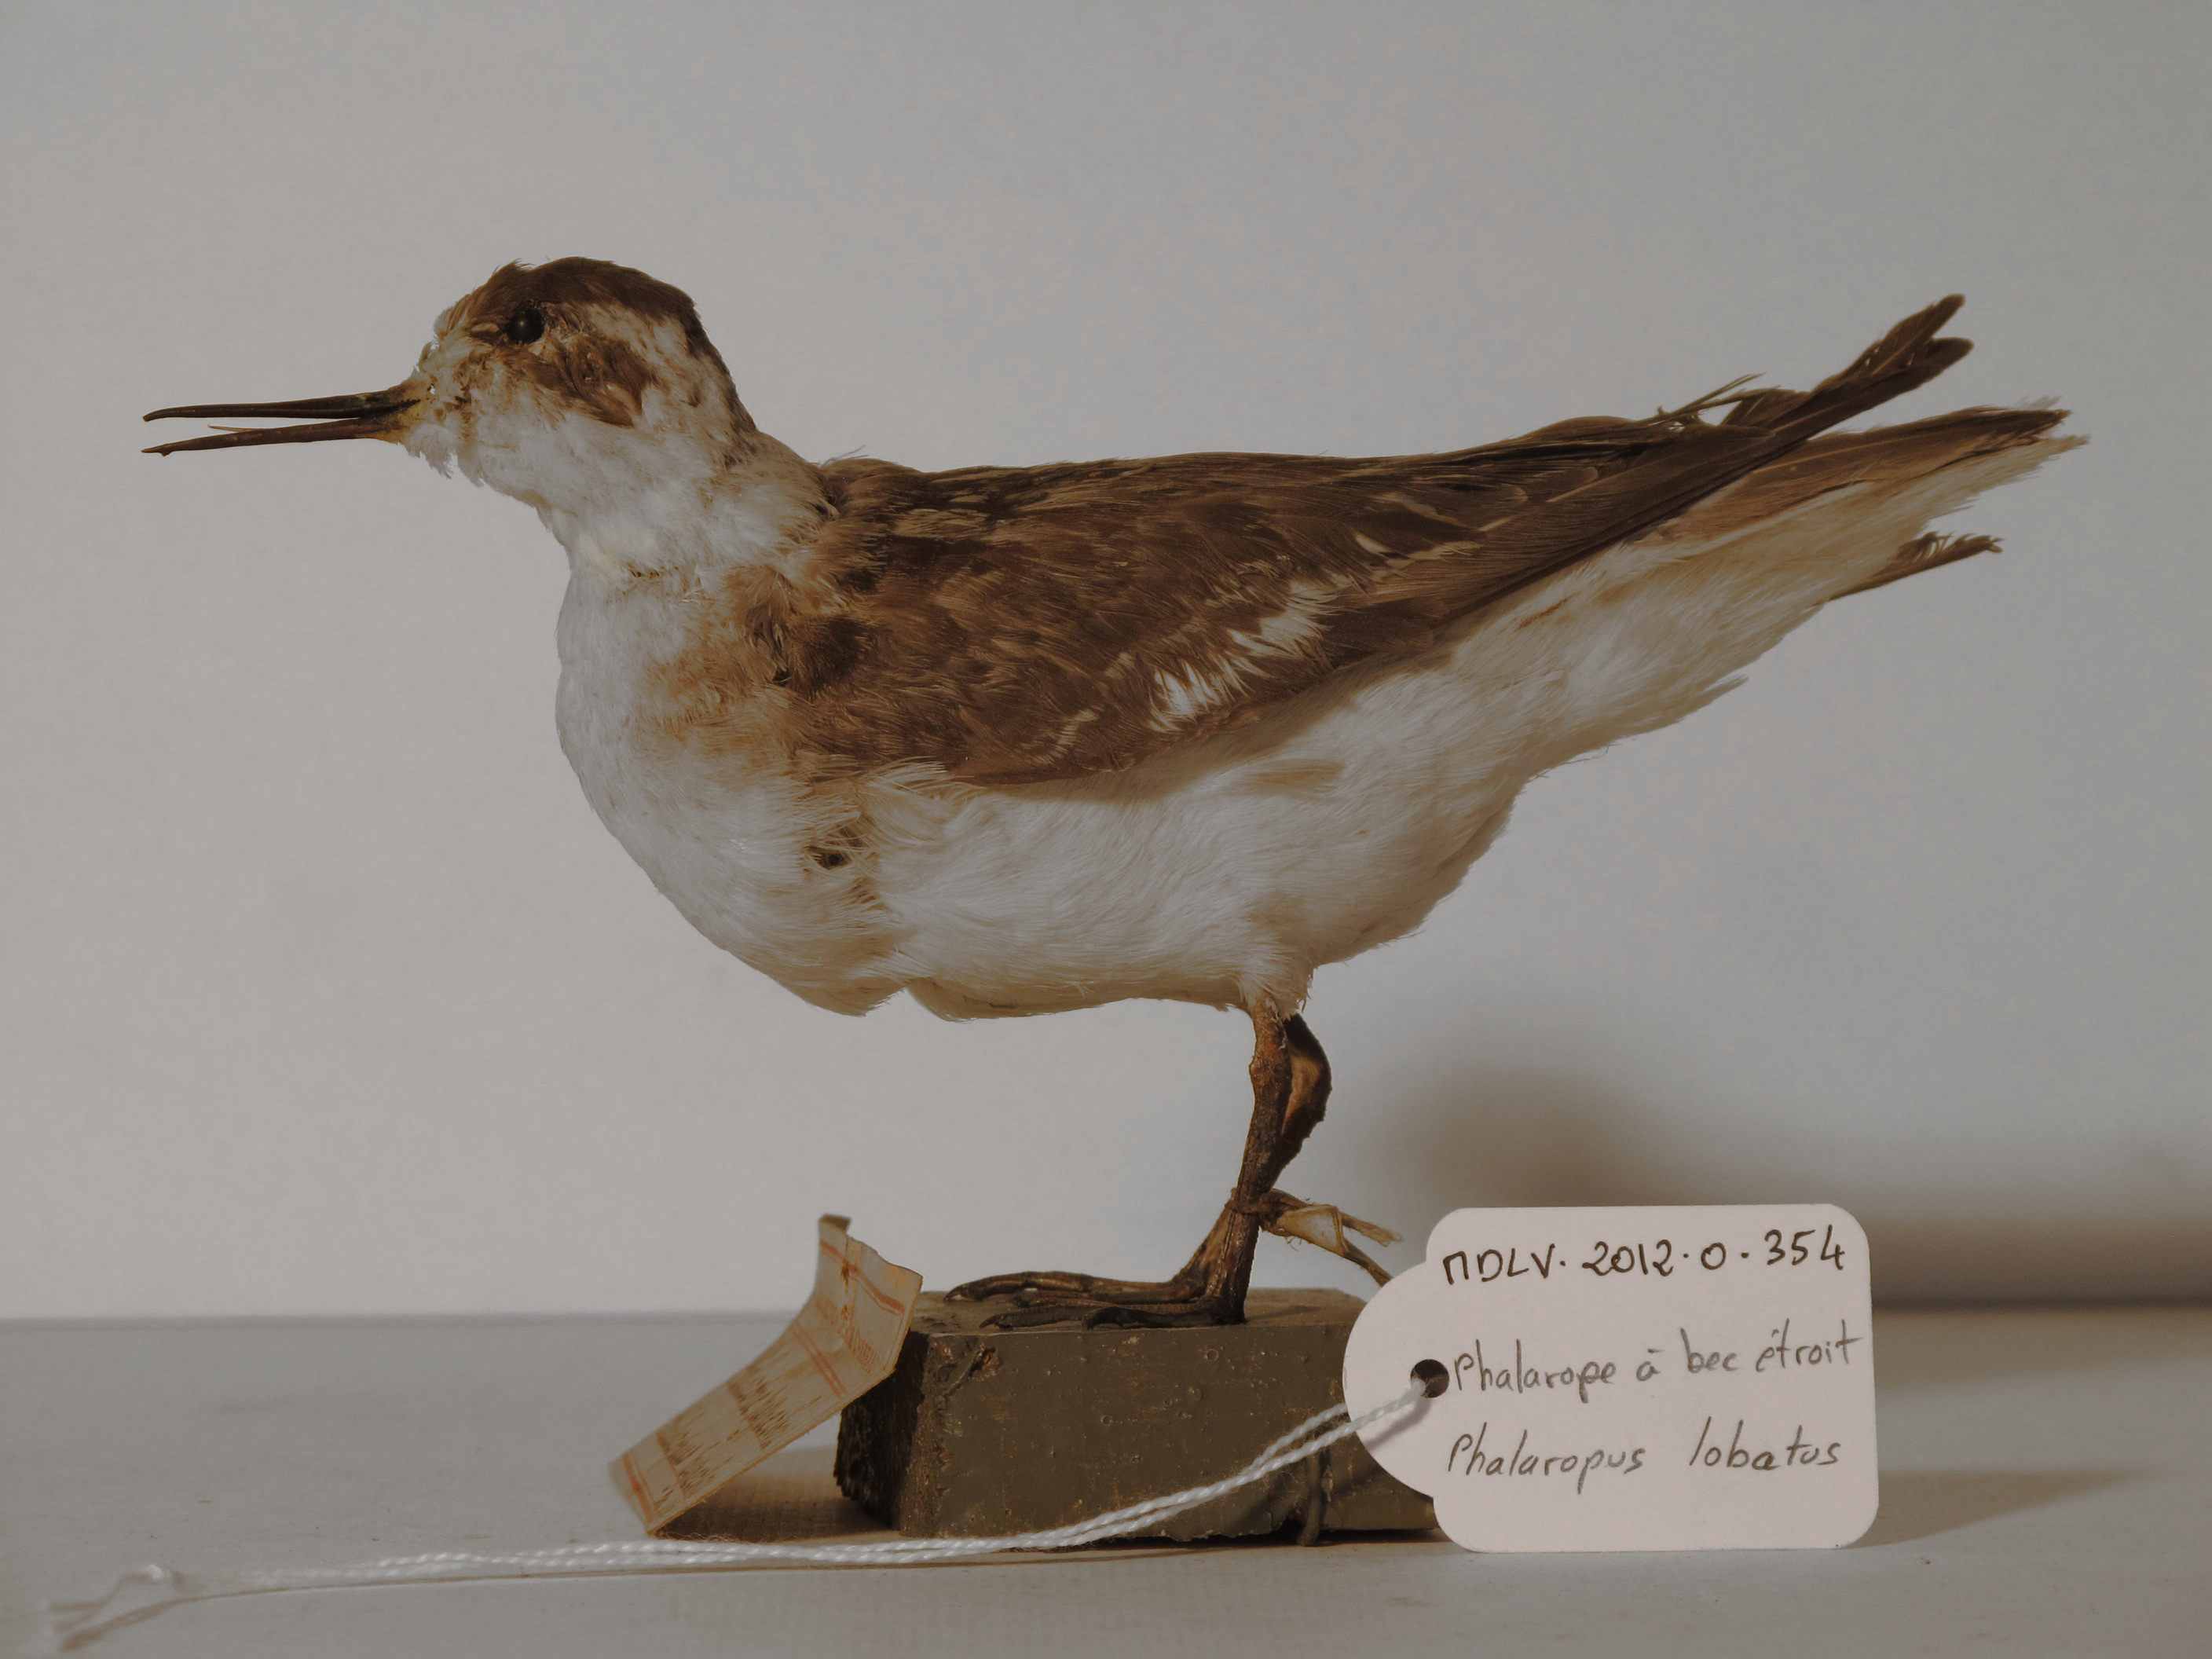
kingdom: Animalia
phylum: Chordata
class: Aves
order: Charadriiformes
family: Scolopacidae
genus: Phalaropus
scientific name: Phalaropus lobatus
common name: Red-necked Phalarope
